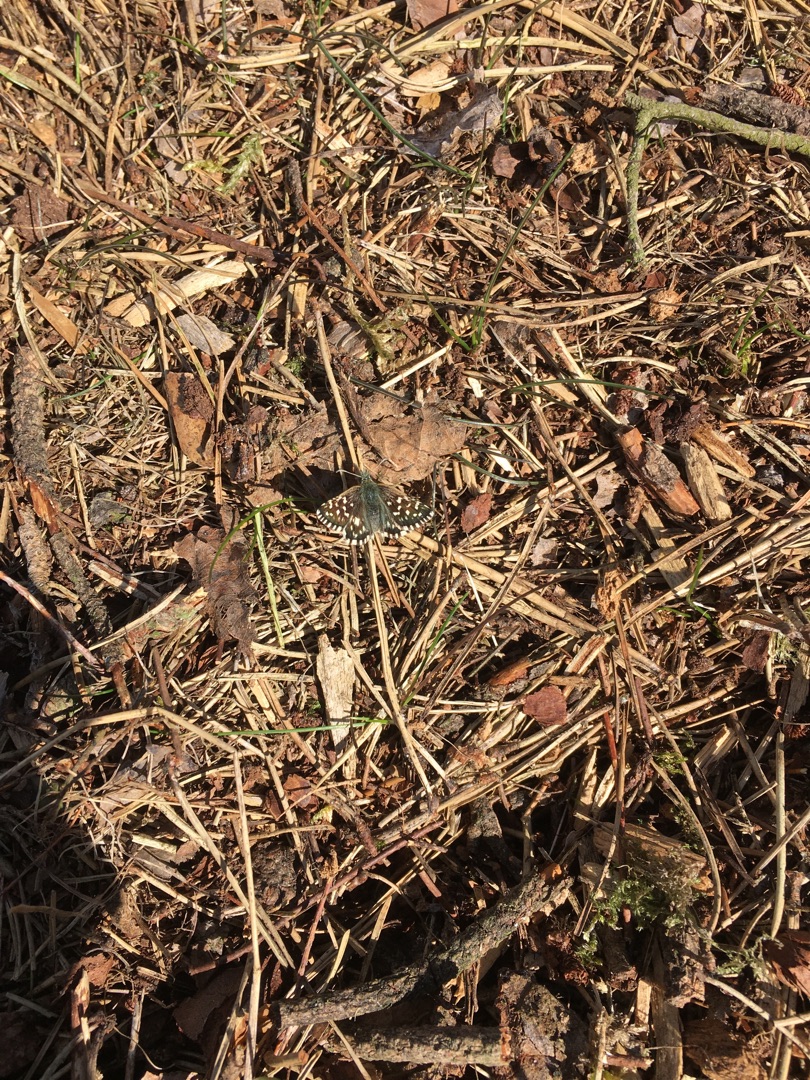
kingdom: Animalia
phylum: Arthropoda
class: Insecta
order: Lepidoptera
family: Hesperiidae
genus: Pyrgus
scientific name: Pyrgus malvae
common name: Spættet bredpande
